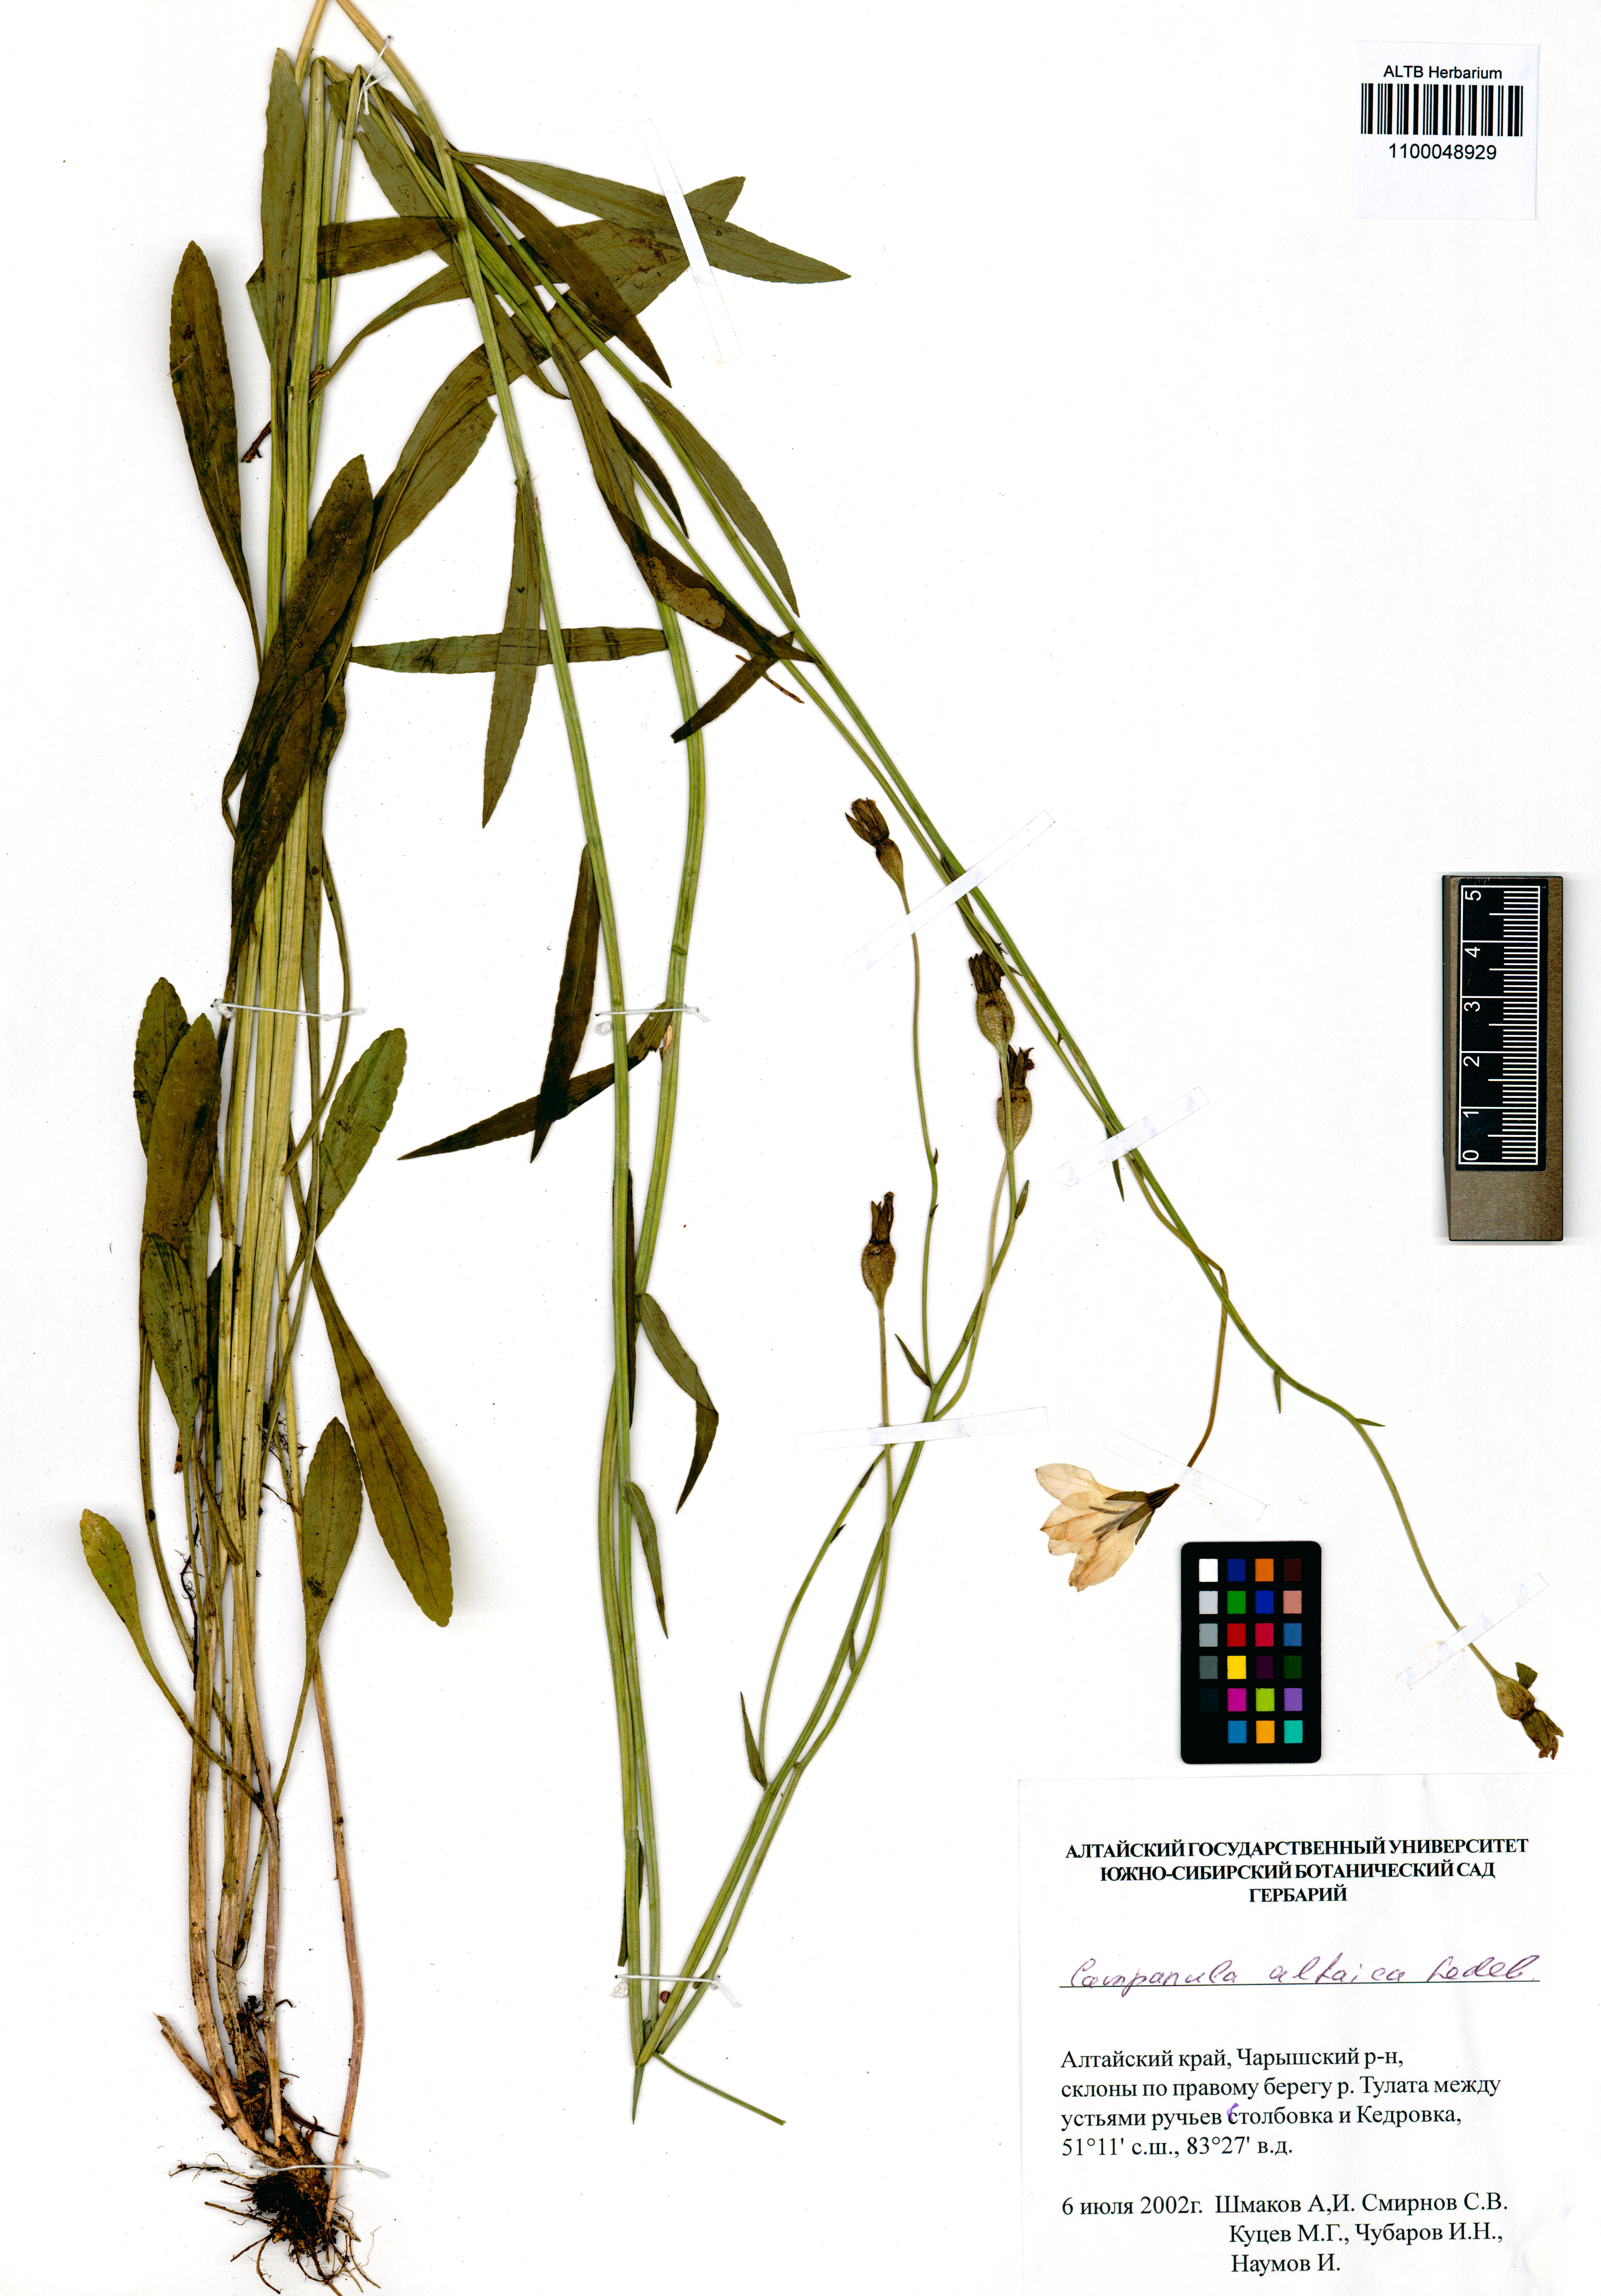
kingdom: Plantae
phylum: Tracheophyta
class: Magnoliopsida
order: Asterales
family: Campanulaceae
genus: Campanula
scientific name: Campanula stevenii
